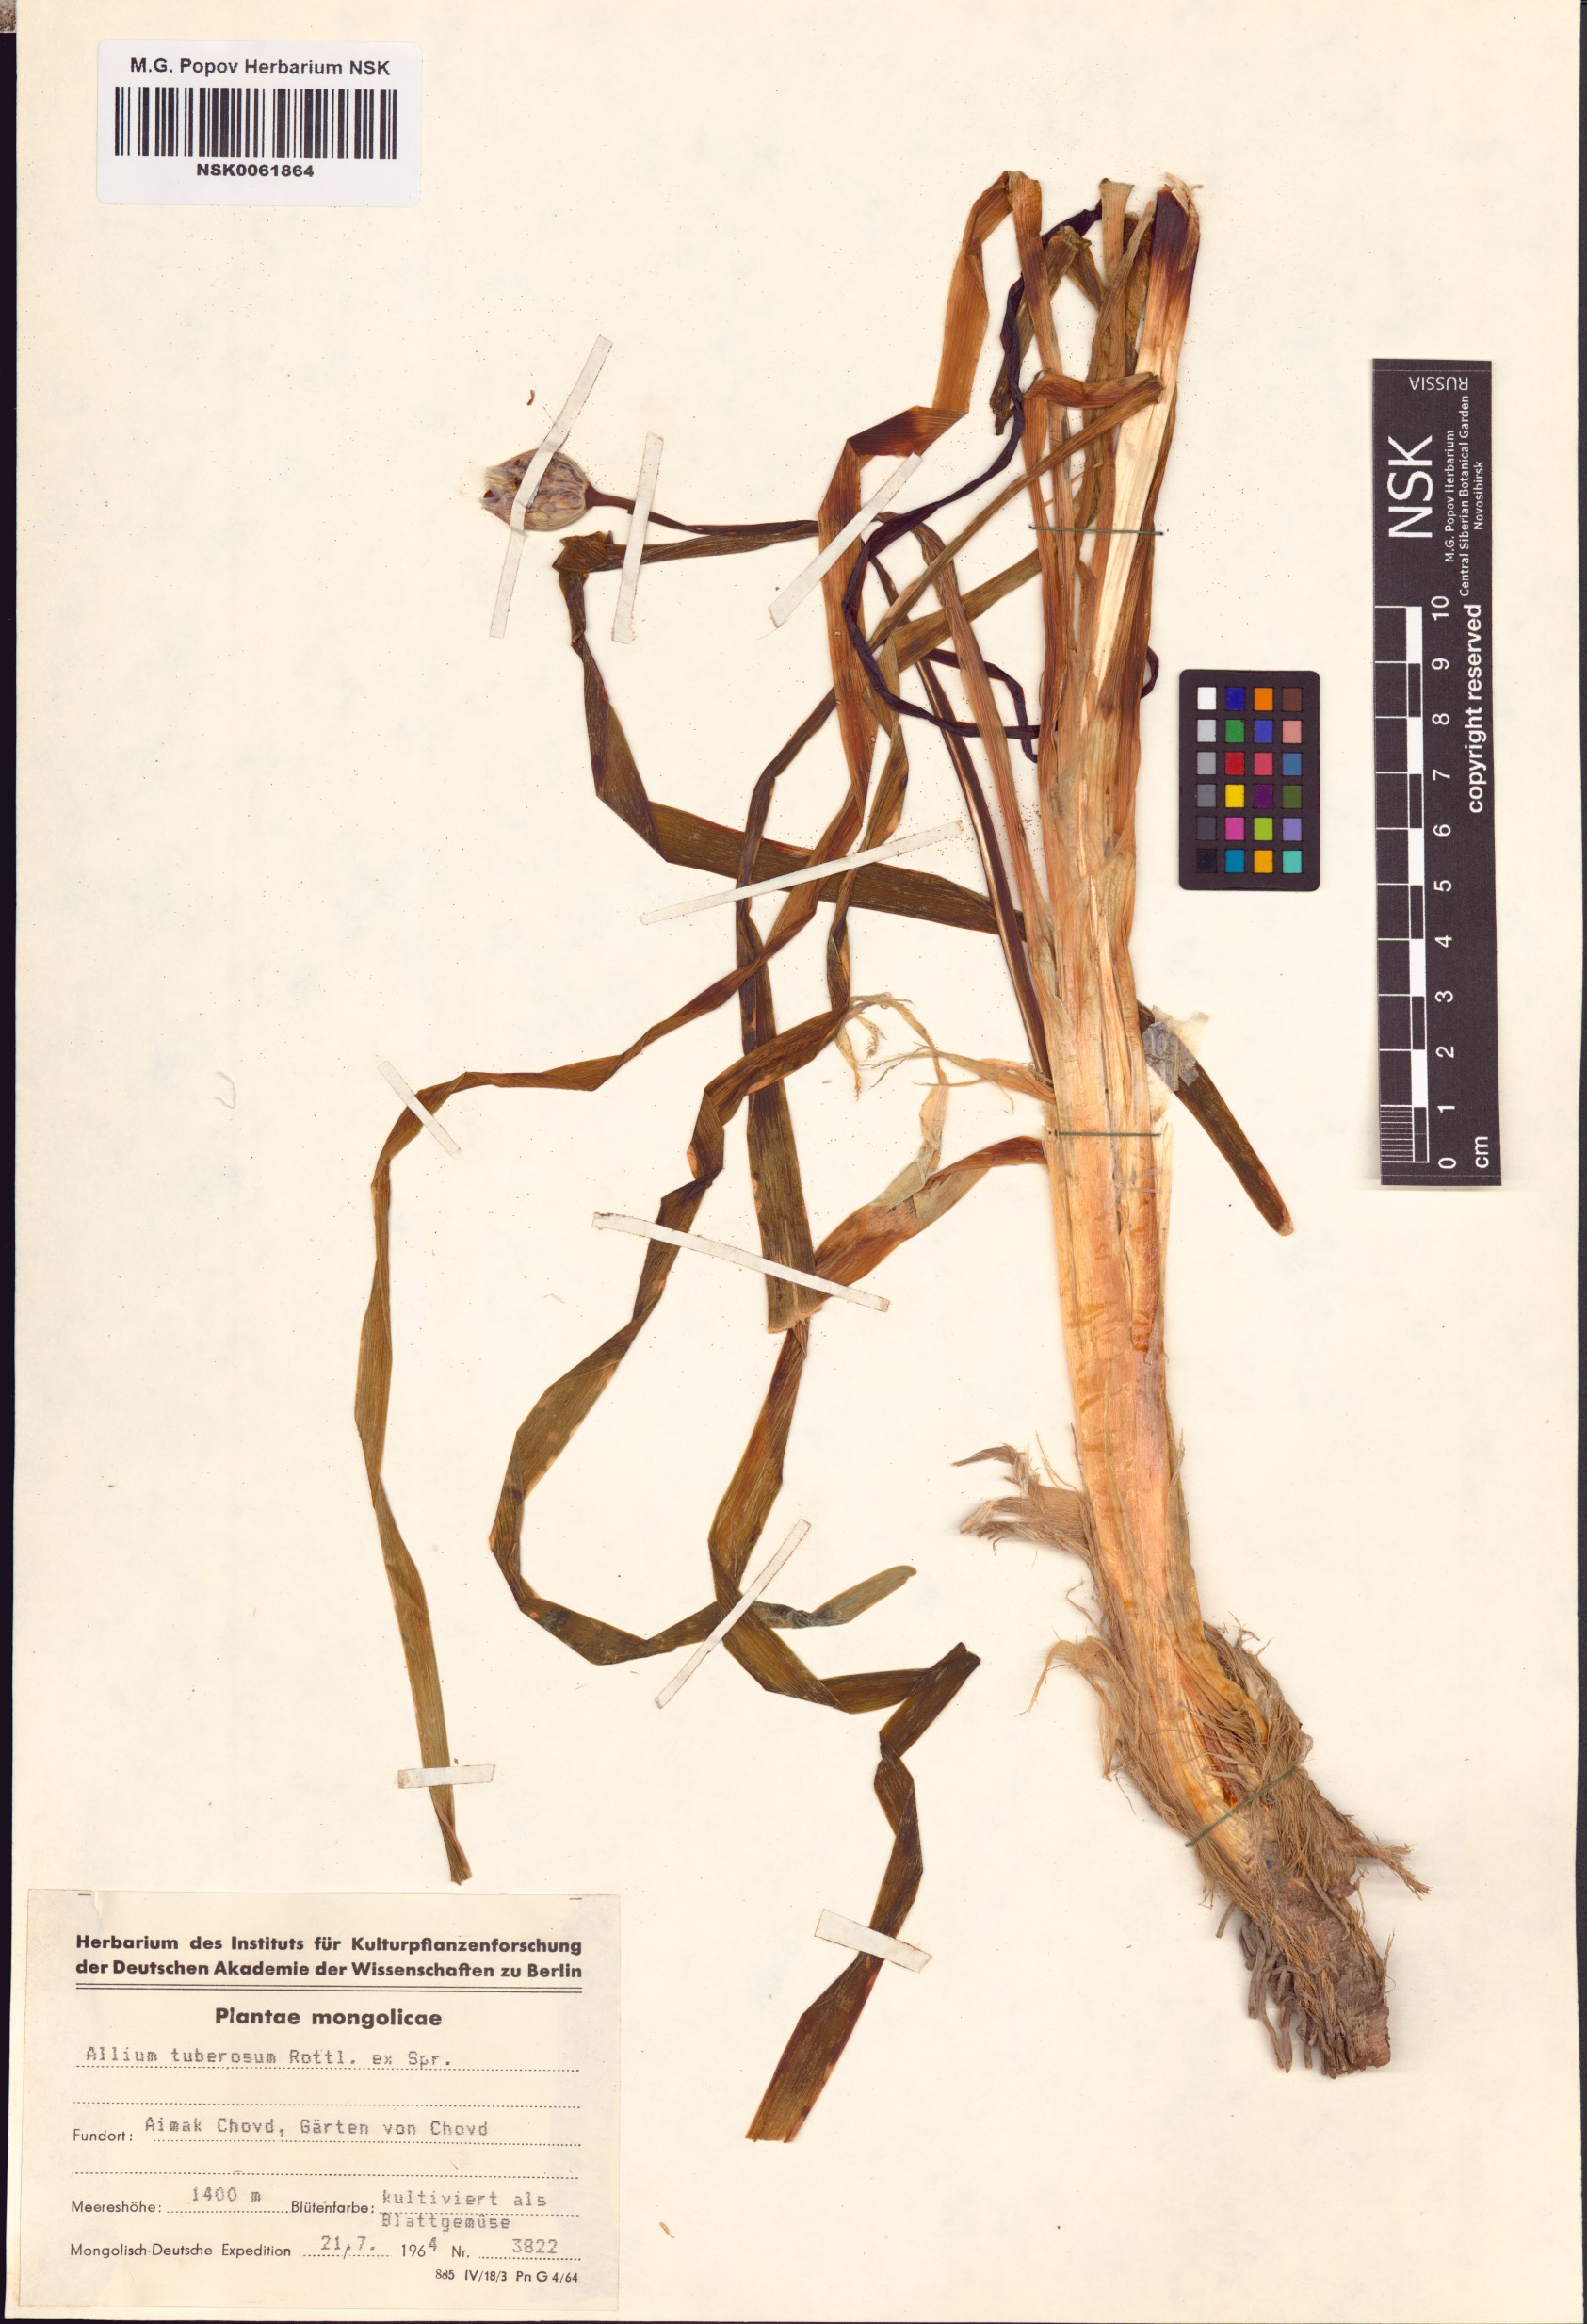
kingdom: Plantae
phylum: Tracheophyta
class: Liliopsida
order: Asparagales
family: Amaryllidaceae
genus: Allium
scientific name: Allium tuberosum
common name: Chinese chives
